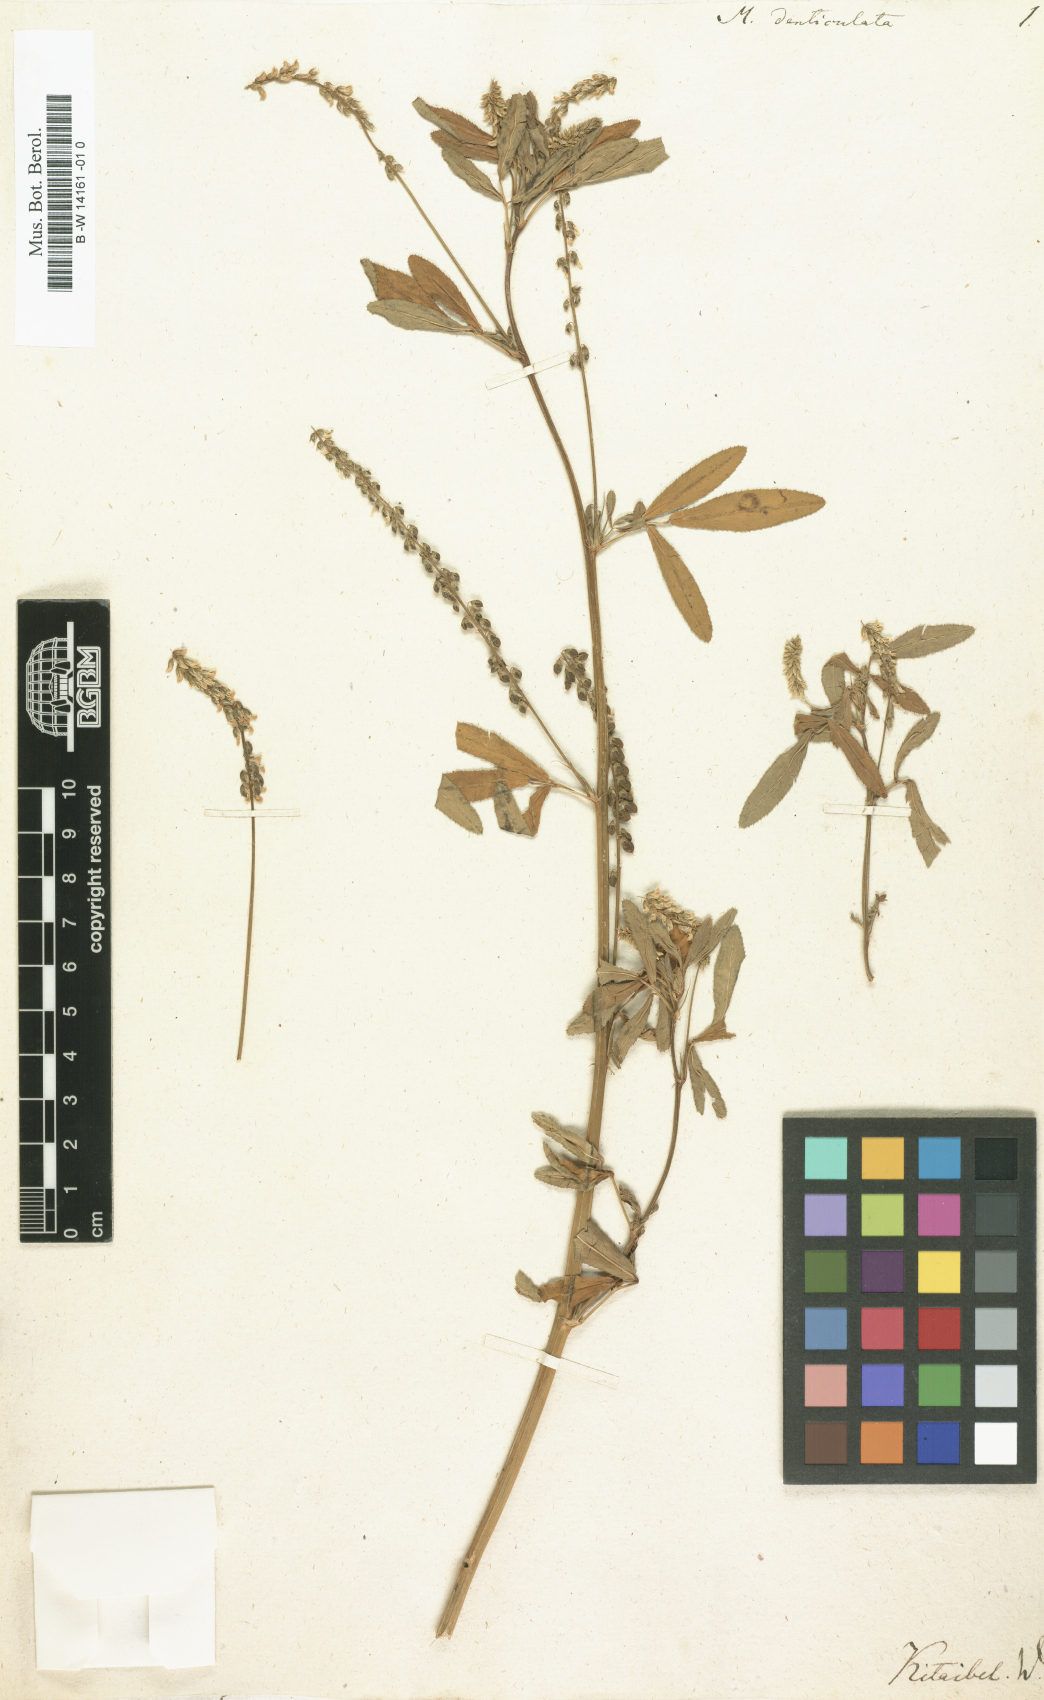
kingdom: Plantae
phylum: Tracheophyta
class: Magnoliopsida
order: Fabales
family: Fabaceae
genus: Melilotus
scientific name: Melilotus
